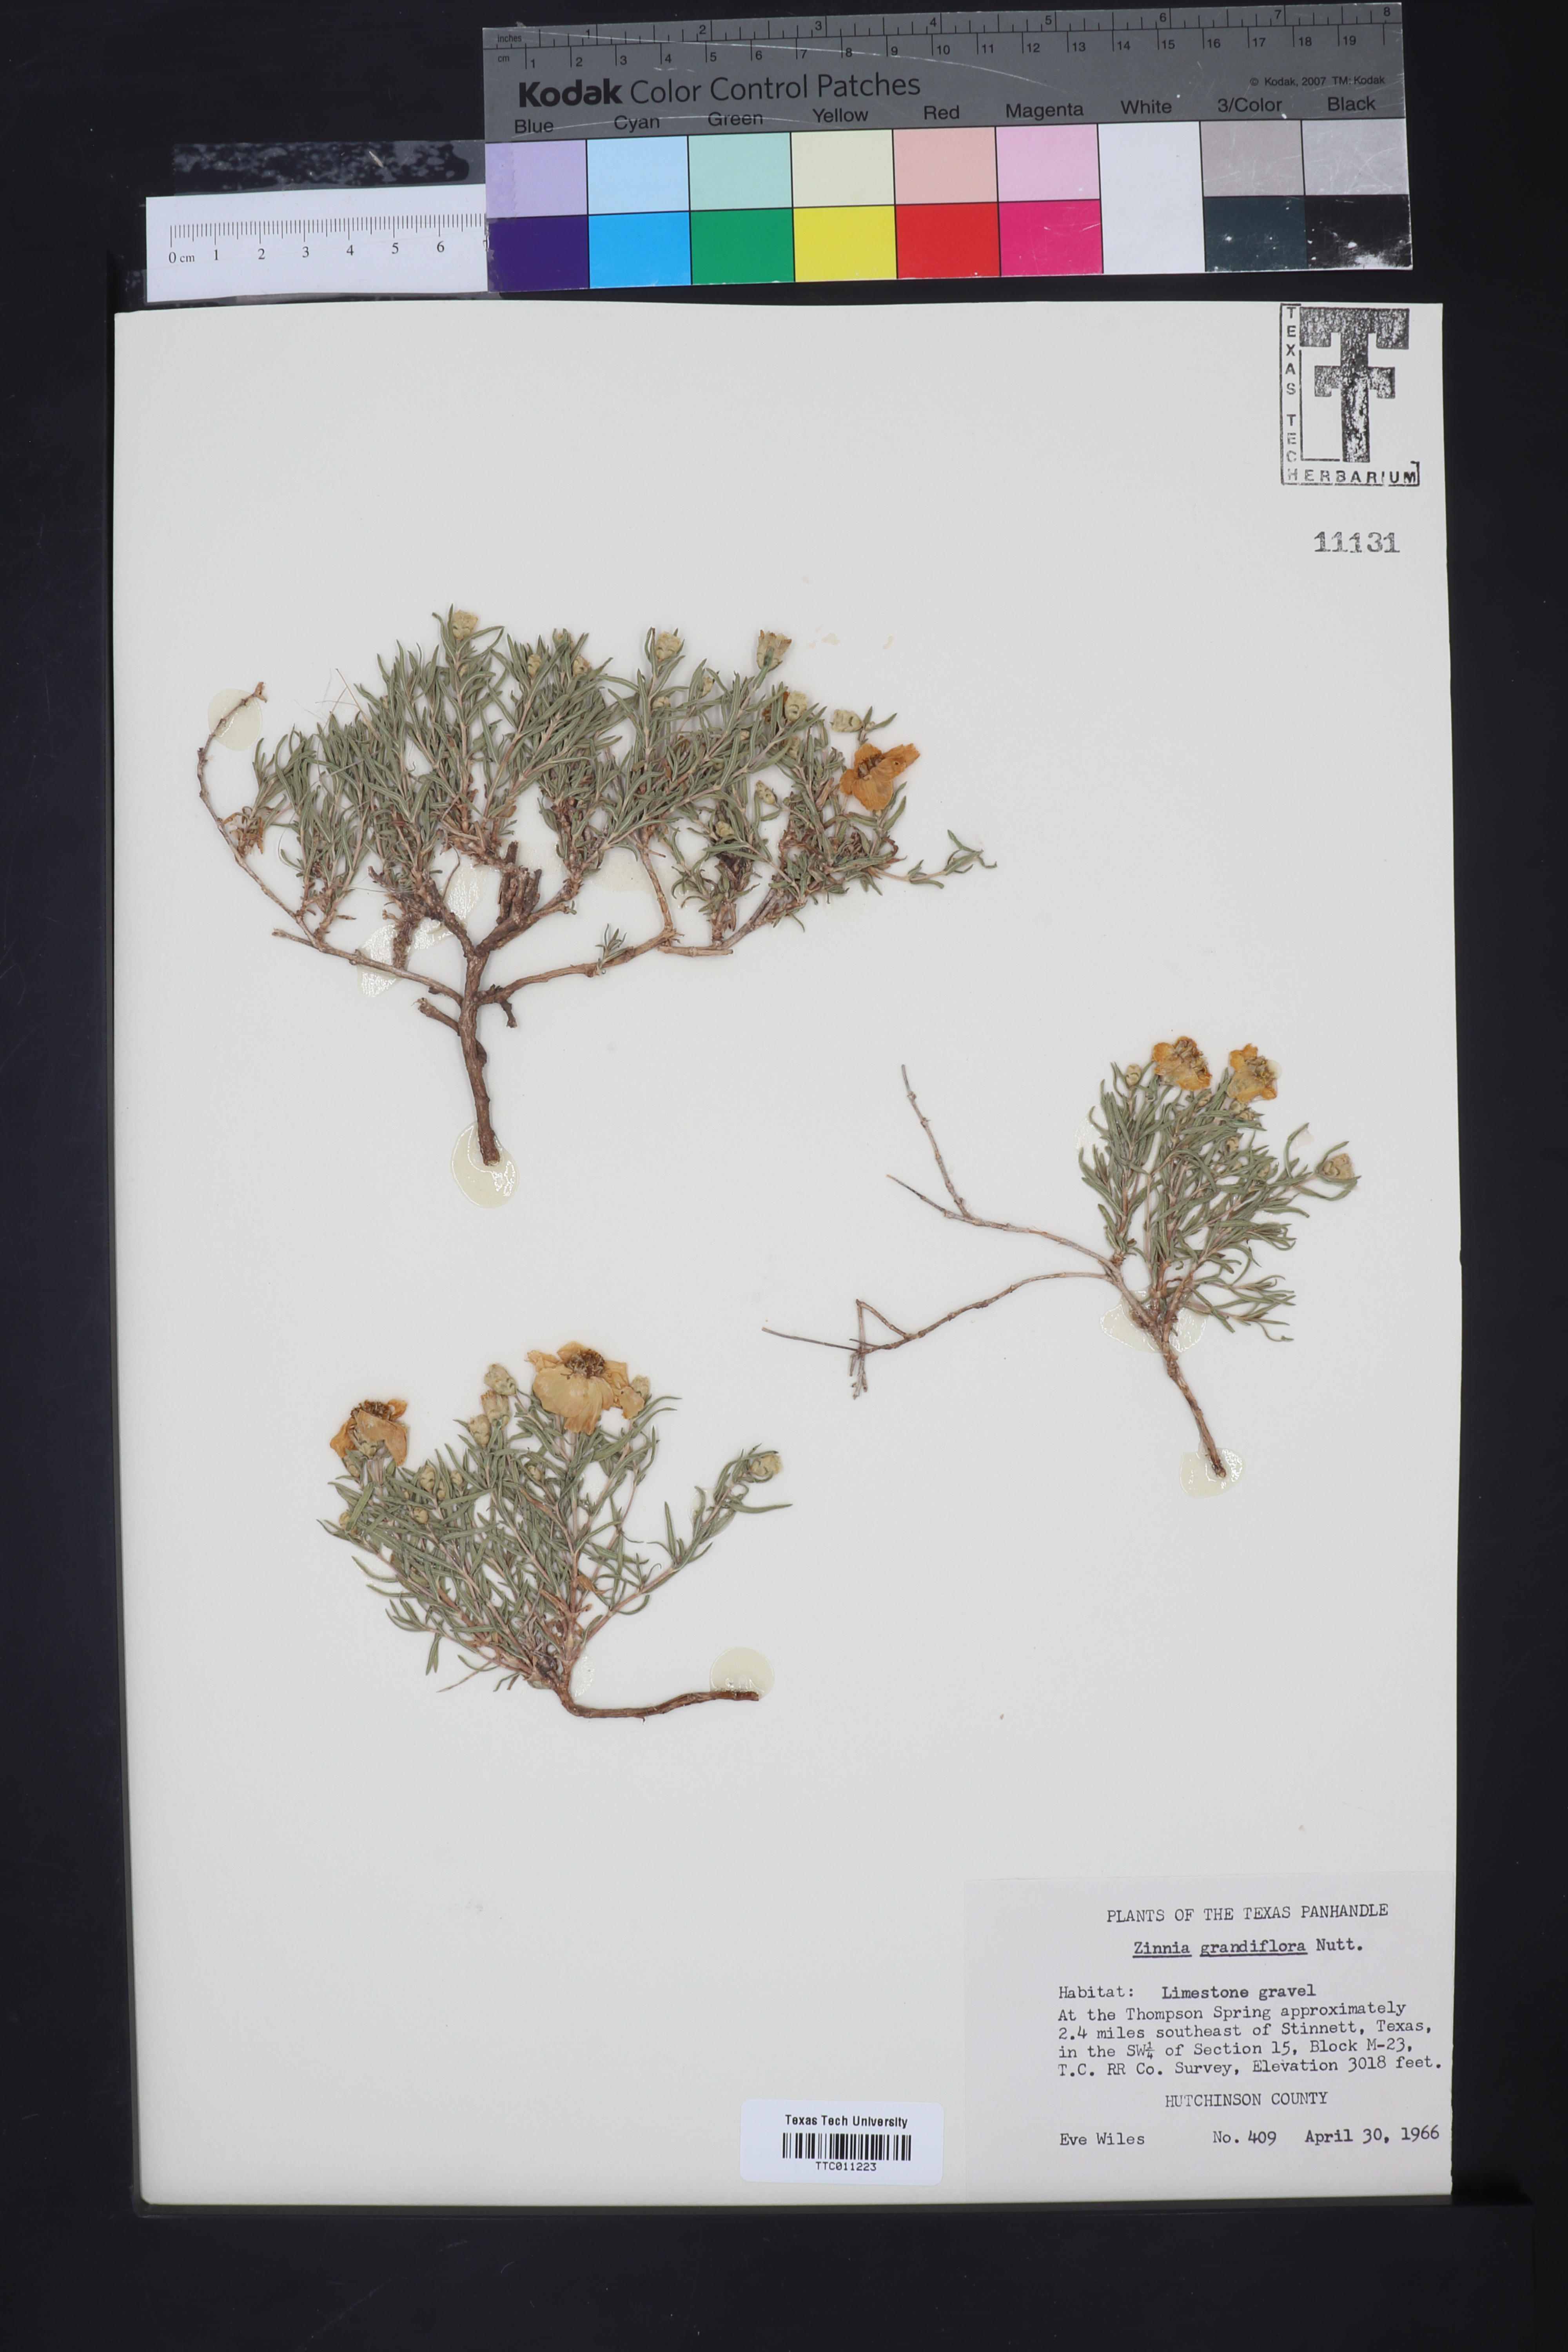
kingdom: Plantae
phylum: Tracheophyta
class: Magnoliopsida
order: Asterales
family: Asteraceae
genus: Zinnia
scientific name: Zinnia grandiflora
